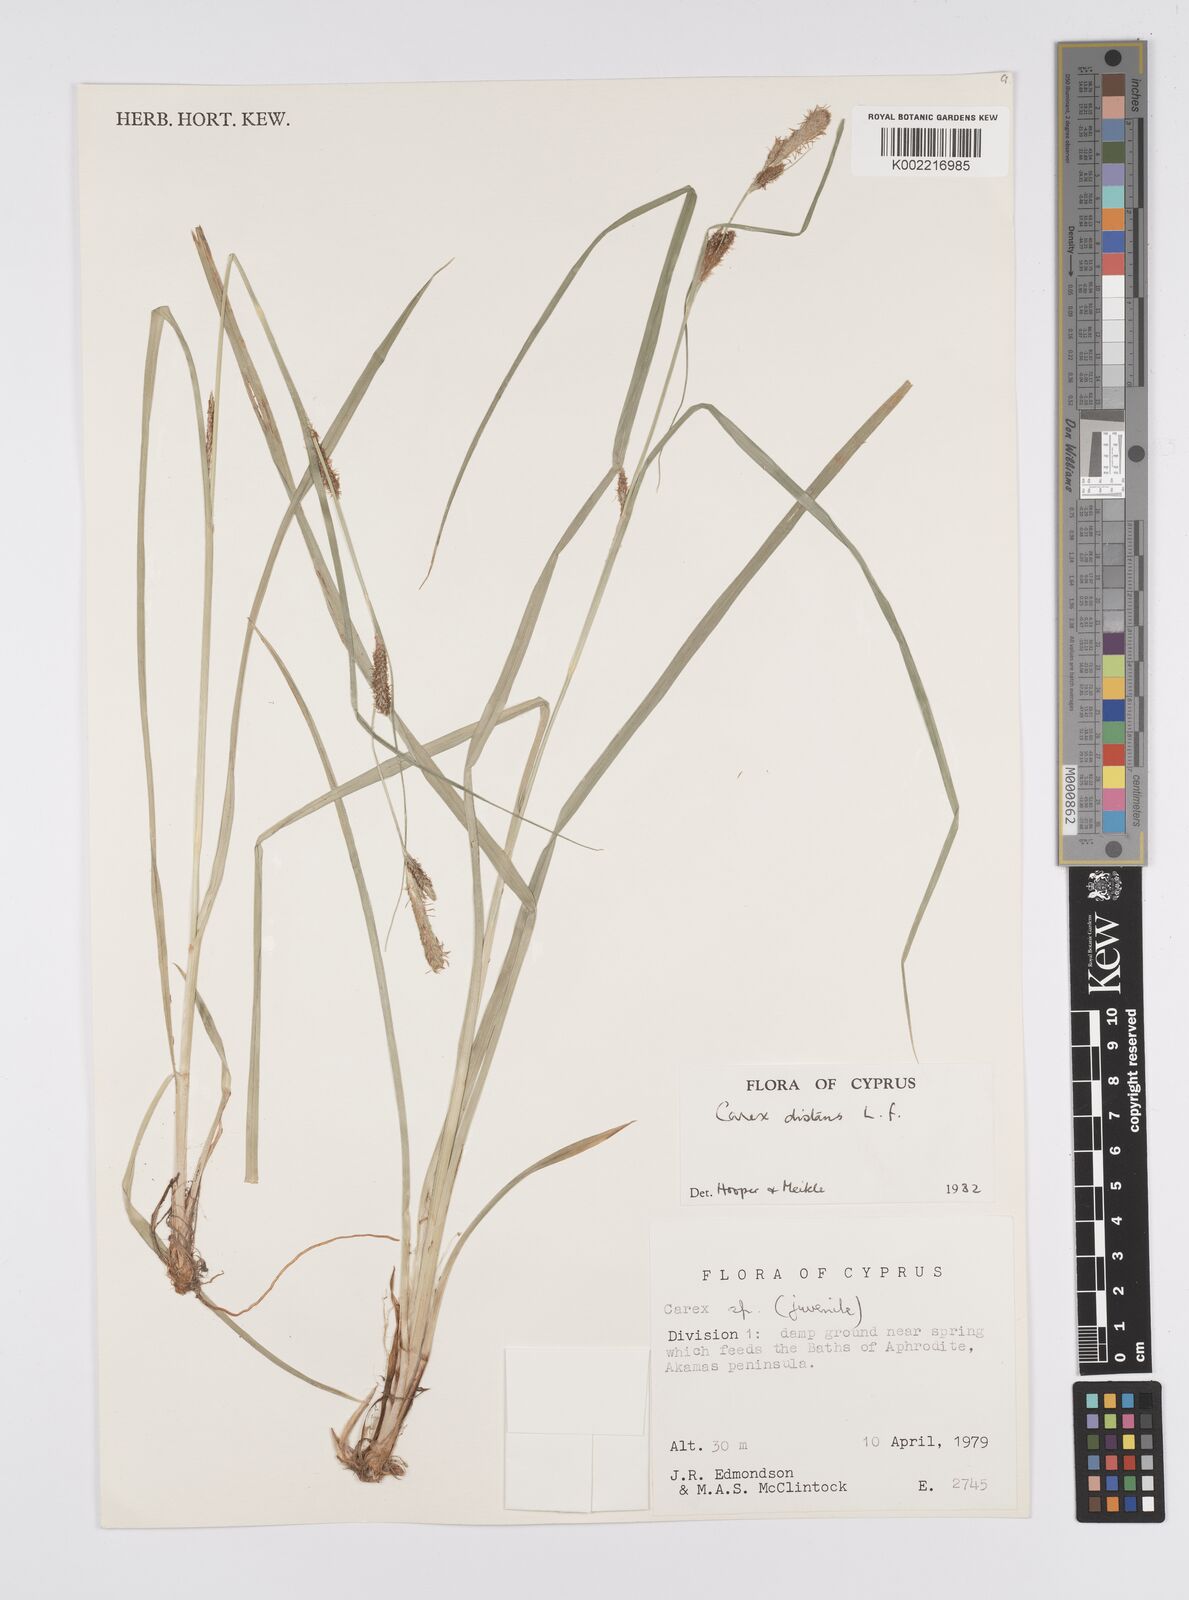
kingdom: Plantae
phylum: Tracheophyta
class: Liliopsida
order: Poales
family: Cyperaceae
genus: Carex
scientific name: Carex distans
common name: Distant sedge
